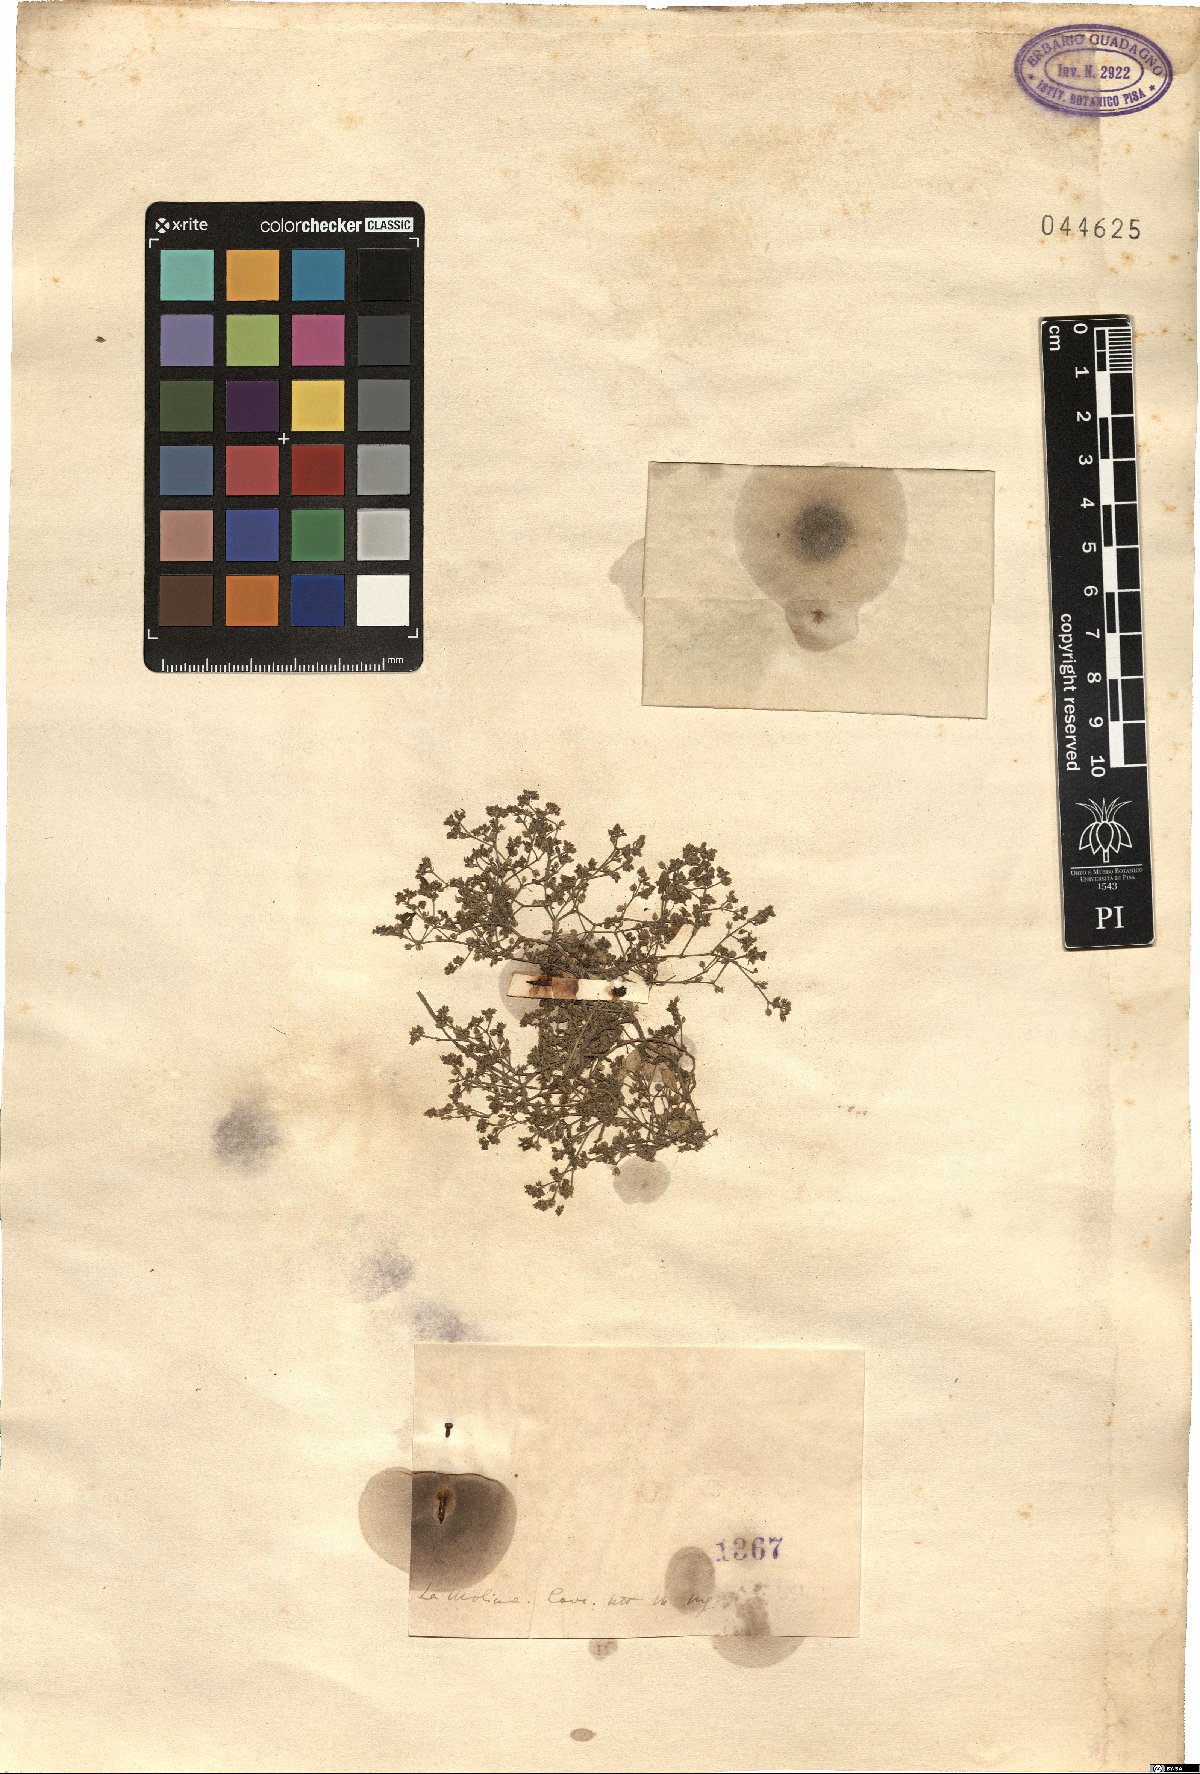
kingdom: Plantae
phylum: Tracheophyta
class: Magnoliopsida
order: Caryophyllales
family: Caryophyllaceae
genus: Polycarpon
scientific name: Polycarpon
